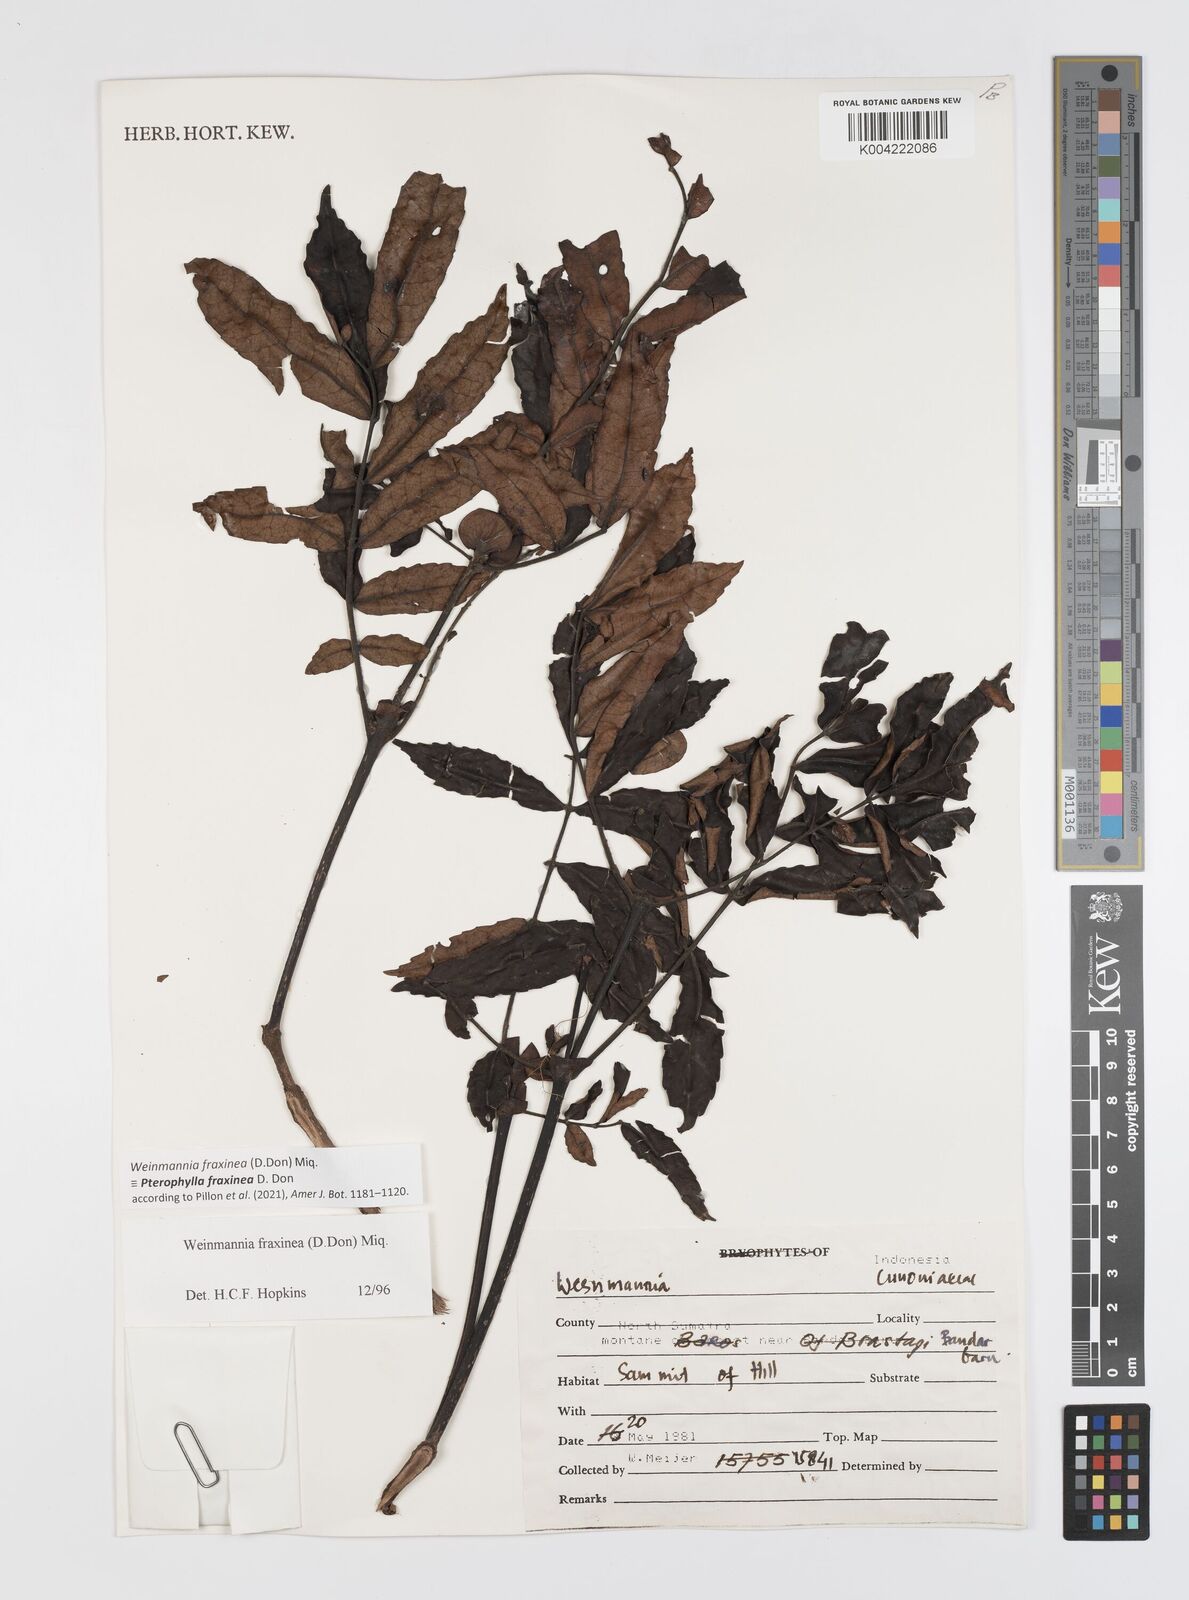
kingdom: Plantae
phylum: Tracheophyta
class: Magnoliopsida
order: Oxalidales
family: Cunoniaceae
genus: Pterophylla
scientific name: Pterophylla fraxinea
